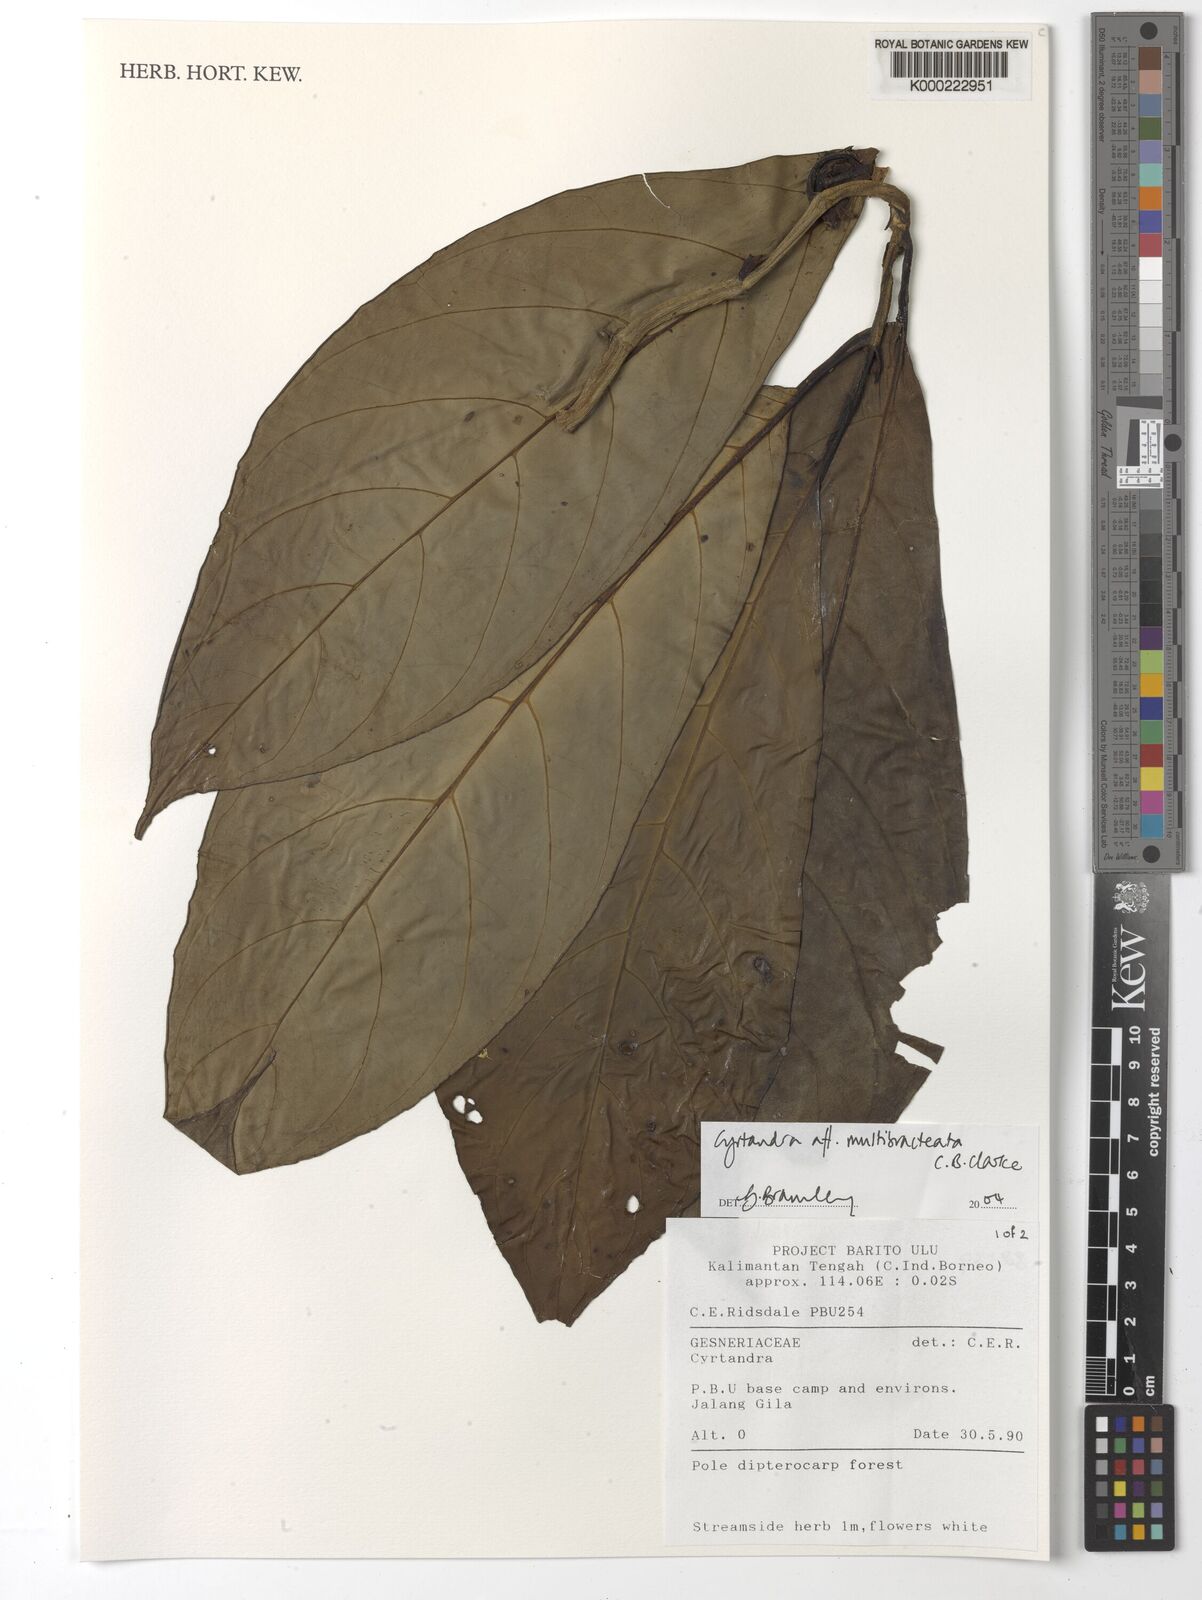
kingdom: Plantae
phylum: Tracheophyta
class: Magnoliopsida
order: Lamiales
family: Gesneriaceae
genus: Cyrtandra
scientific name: Cyrtandra multibracteata
